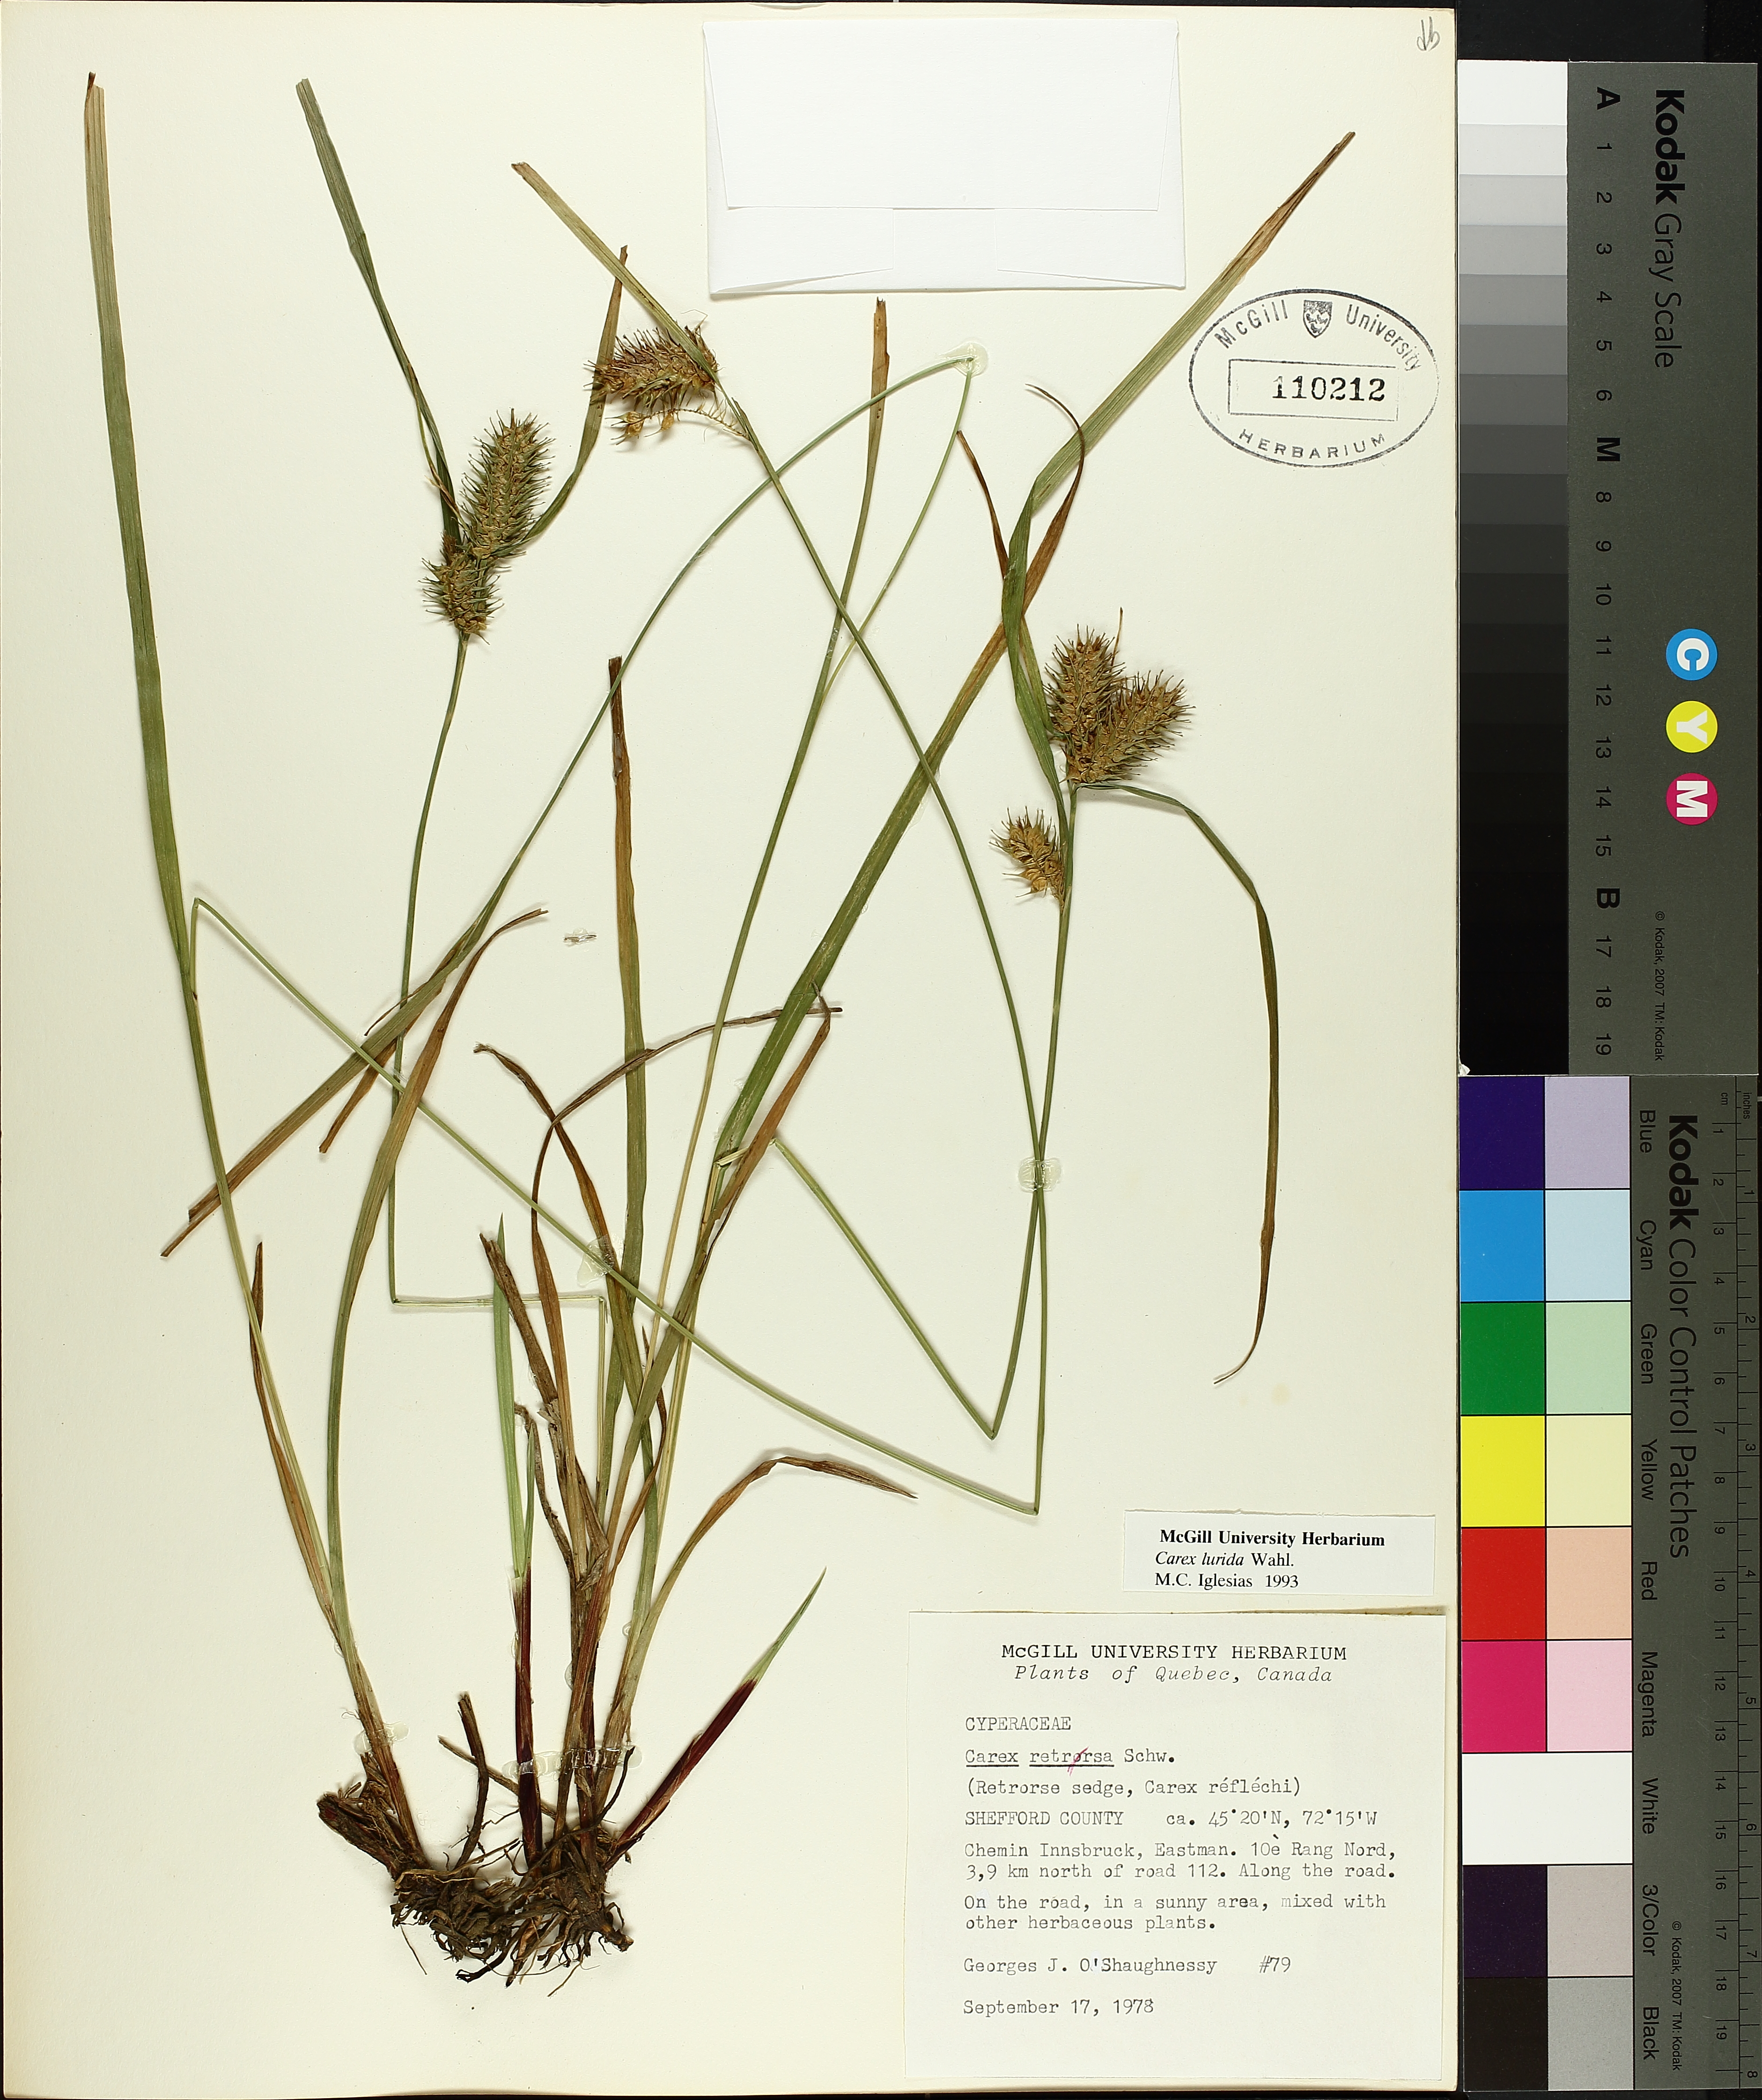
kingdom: Plantae
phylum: Tracheophyta
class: Liliopsida
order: Poales
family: Cyperaceae
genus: Carex
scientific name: Carex lurida
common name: Sallow sedge
